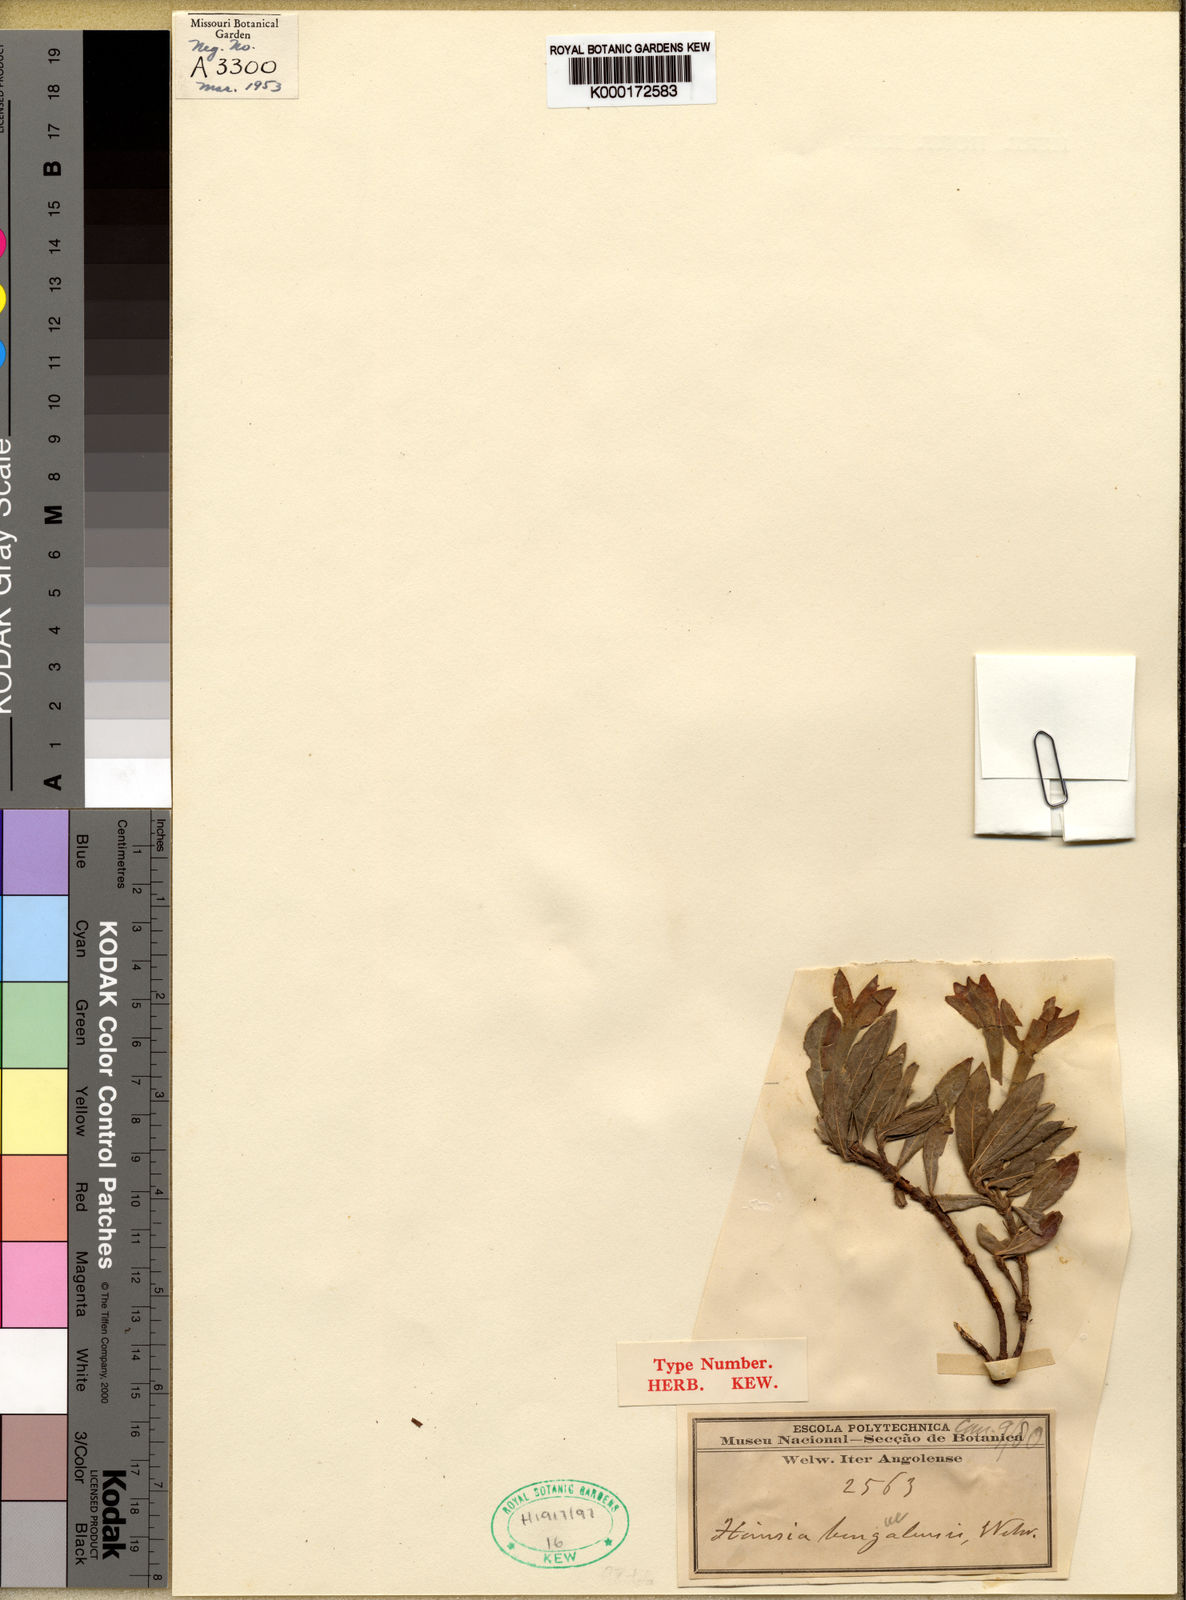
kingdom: Plantae
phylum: Tracheophyta
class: Magnoliopsida
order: Gentianales
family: Rubiaceae
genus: Leptactina
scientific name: Leptactina benguelensis
